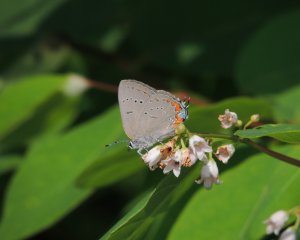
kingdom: Animalia
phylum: Arthropoda
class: Insecta
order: Lepidoptera
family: Lycaenidae
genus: Strymon
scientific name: Strymon acadica
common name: Acadian Hairstreak
